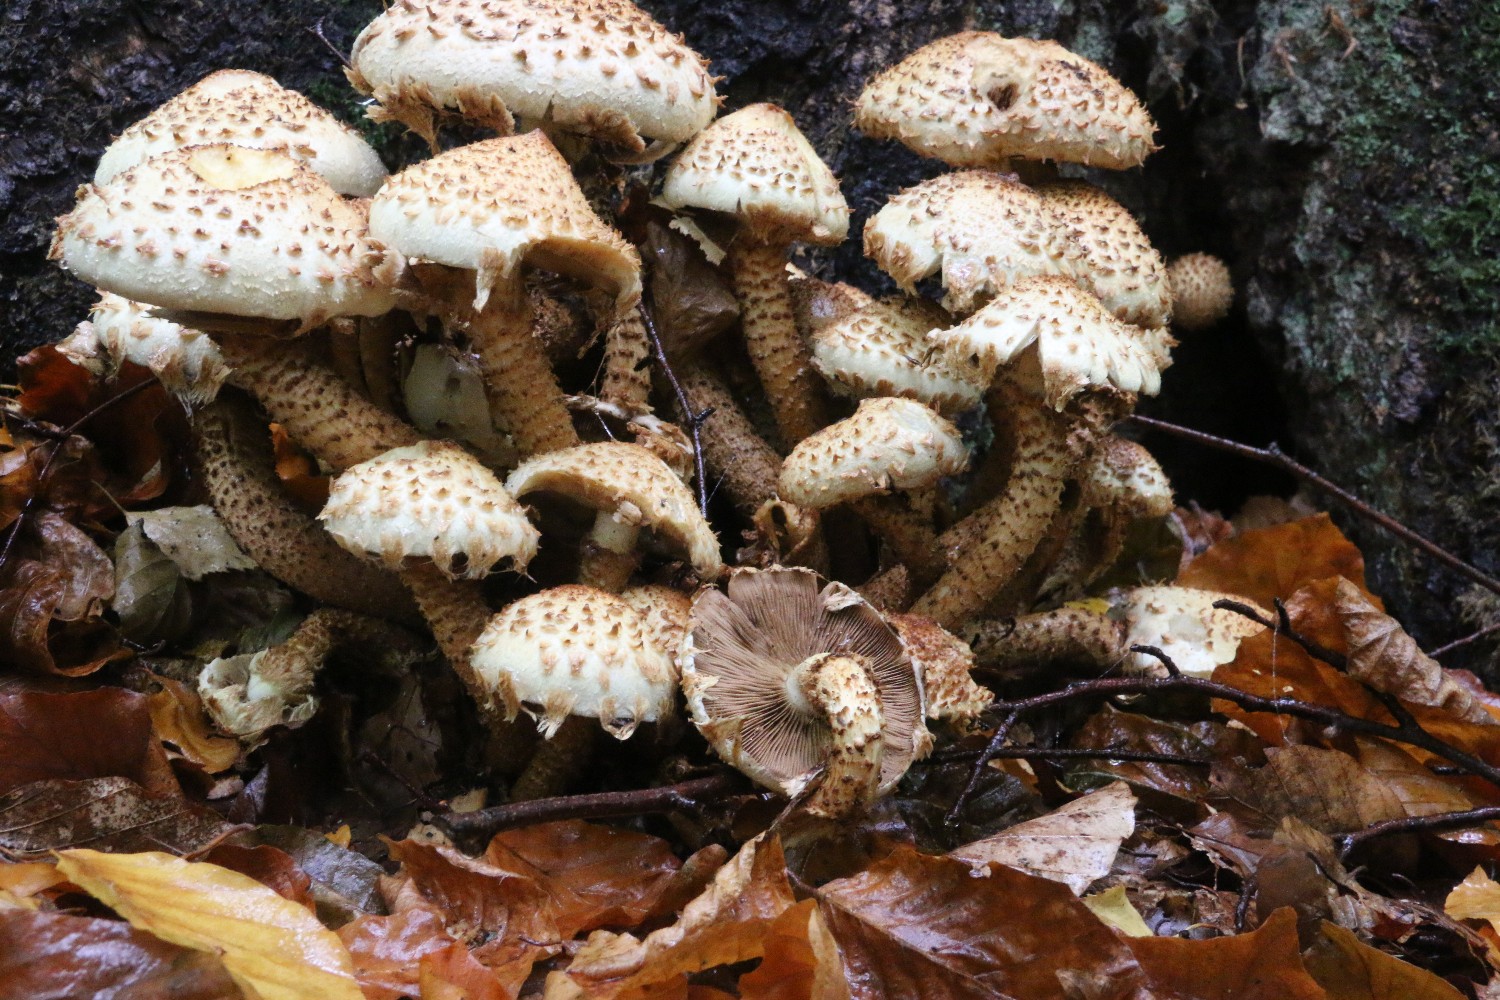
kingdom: Fungi
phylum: Basidiomycota
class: Agaricomycetes
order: Agaricales
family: Strophariaceae
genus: Pholiota
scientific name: Pholiota squarrosa
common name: krumskællet skælhat
